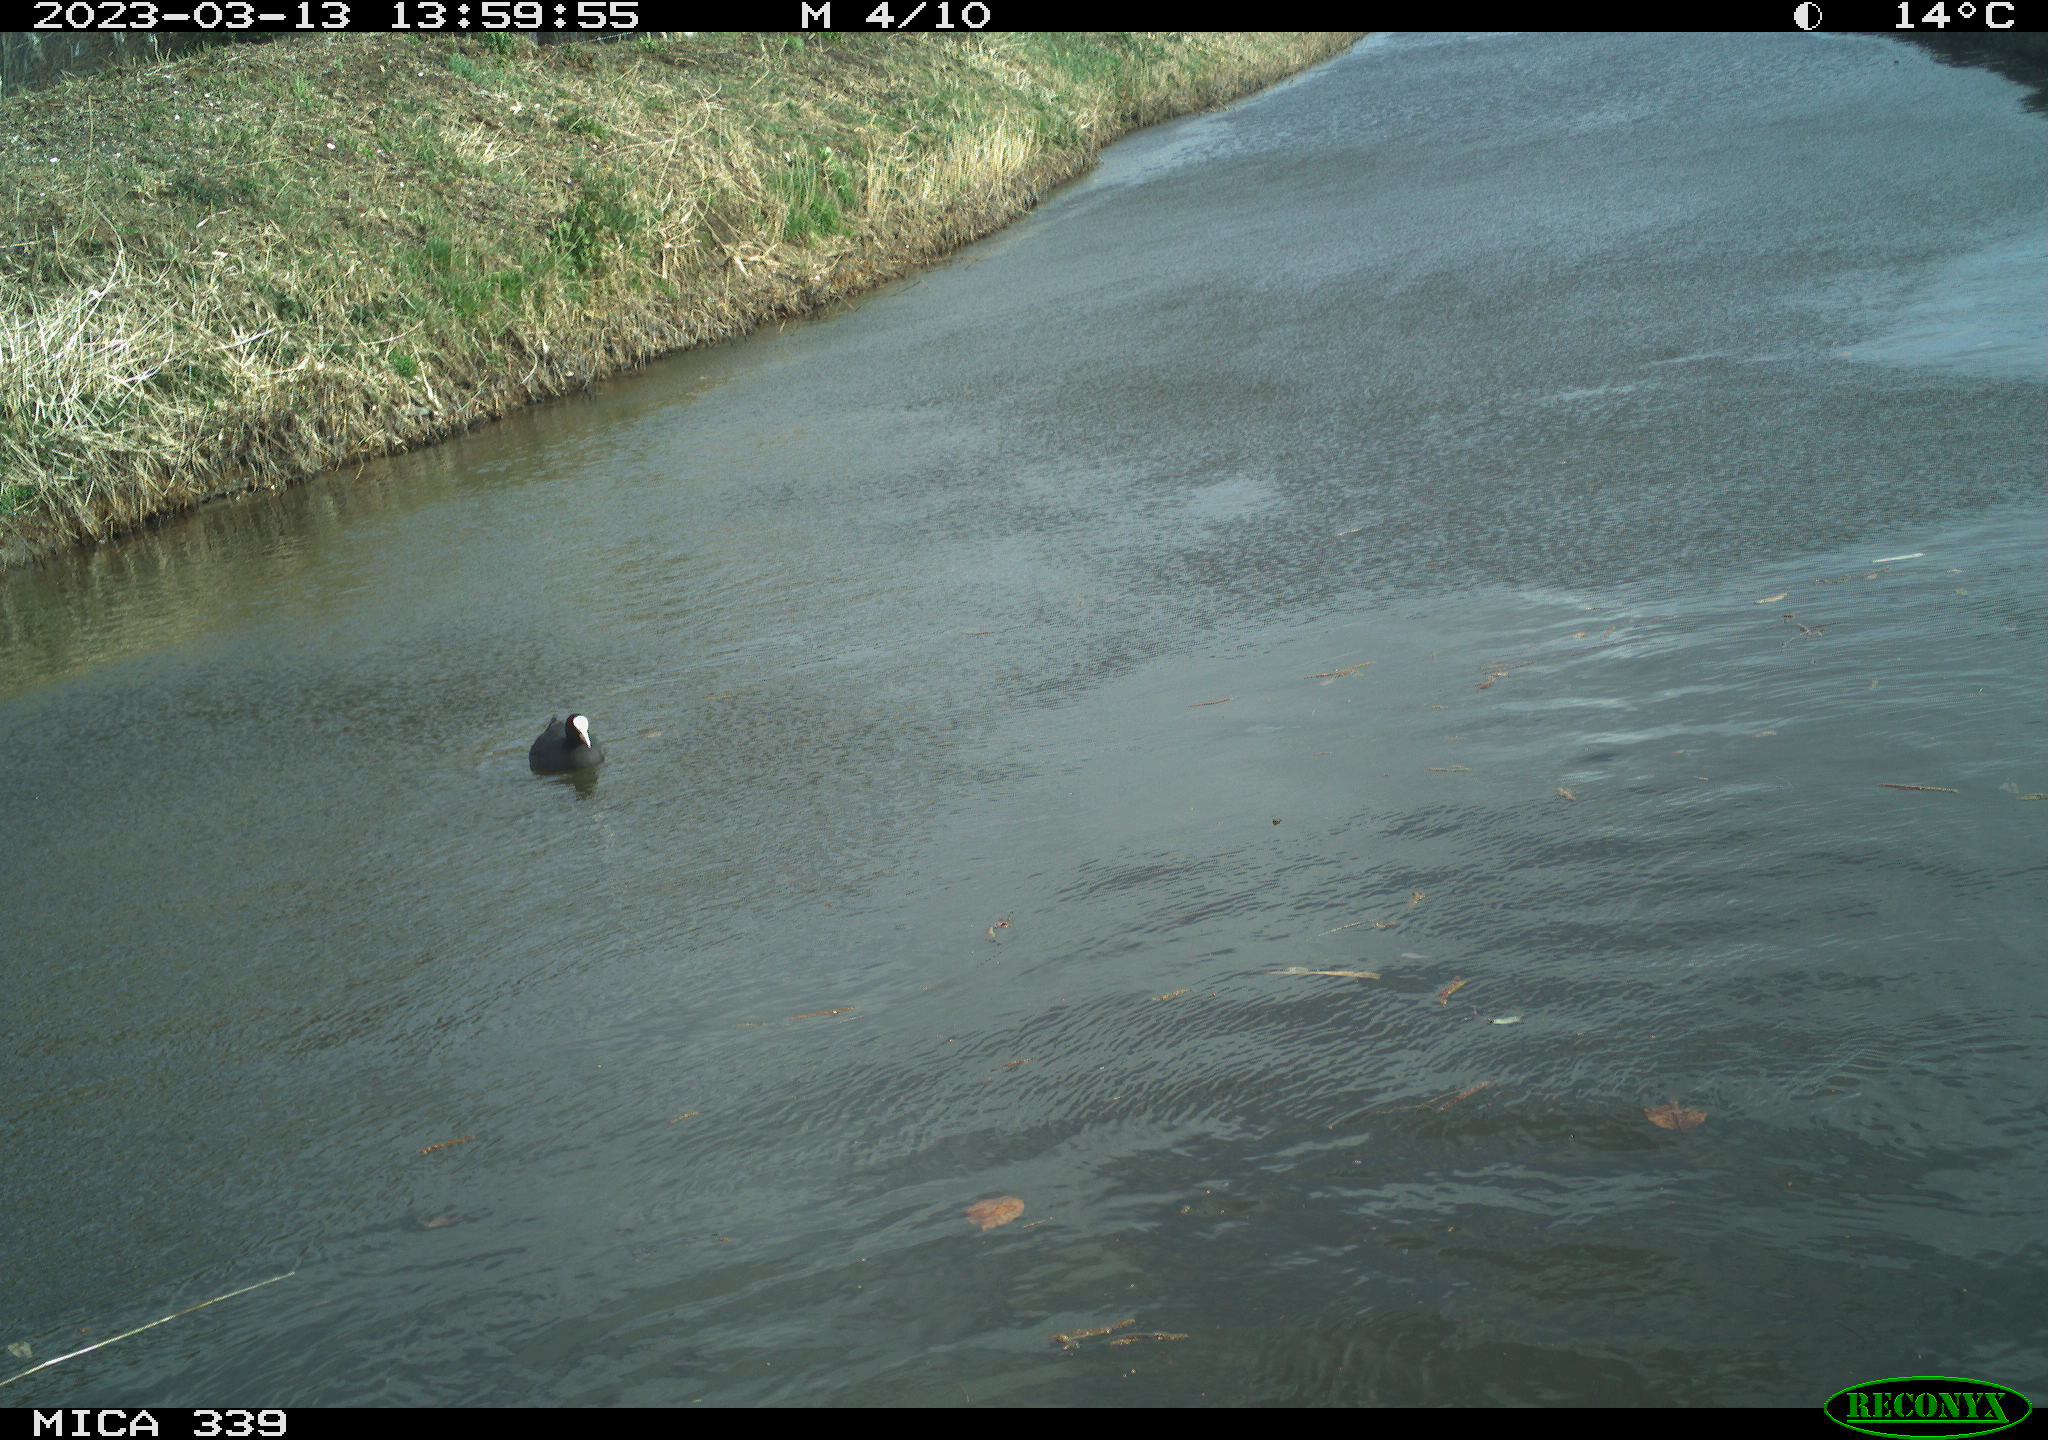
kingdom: Animalia
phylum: Chordata
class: Aves
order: Gruiformes
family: Rallidae
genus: Fulica
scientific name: Fulica atra
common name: Eurasian coot
